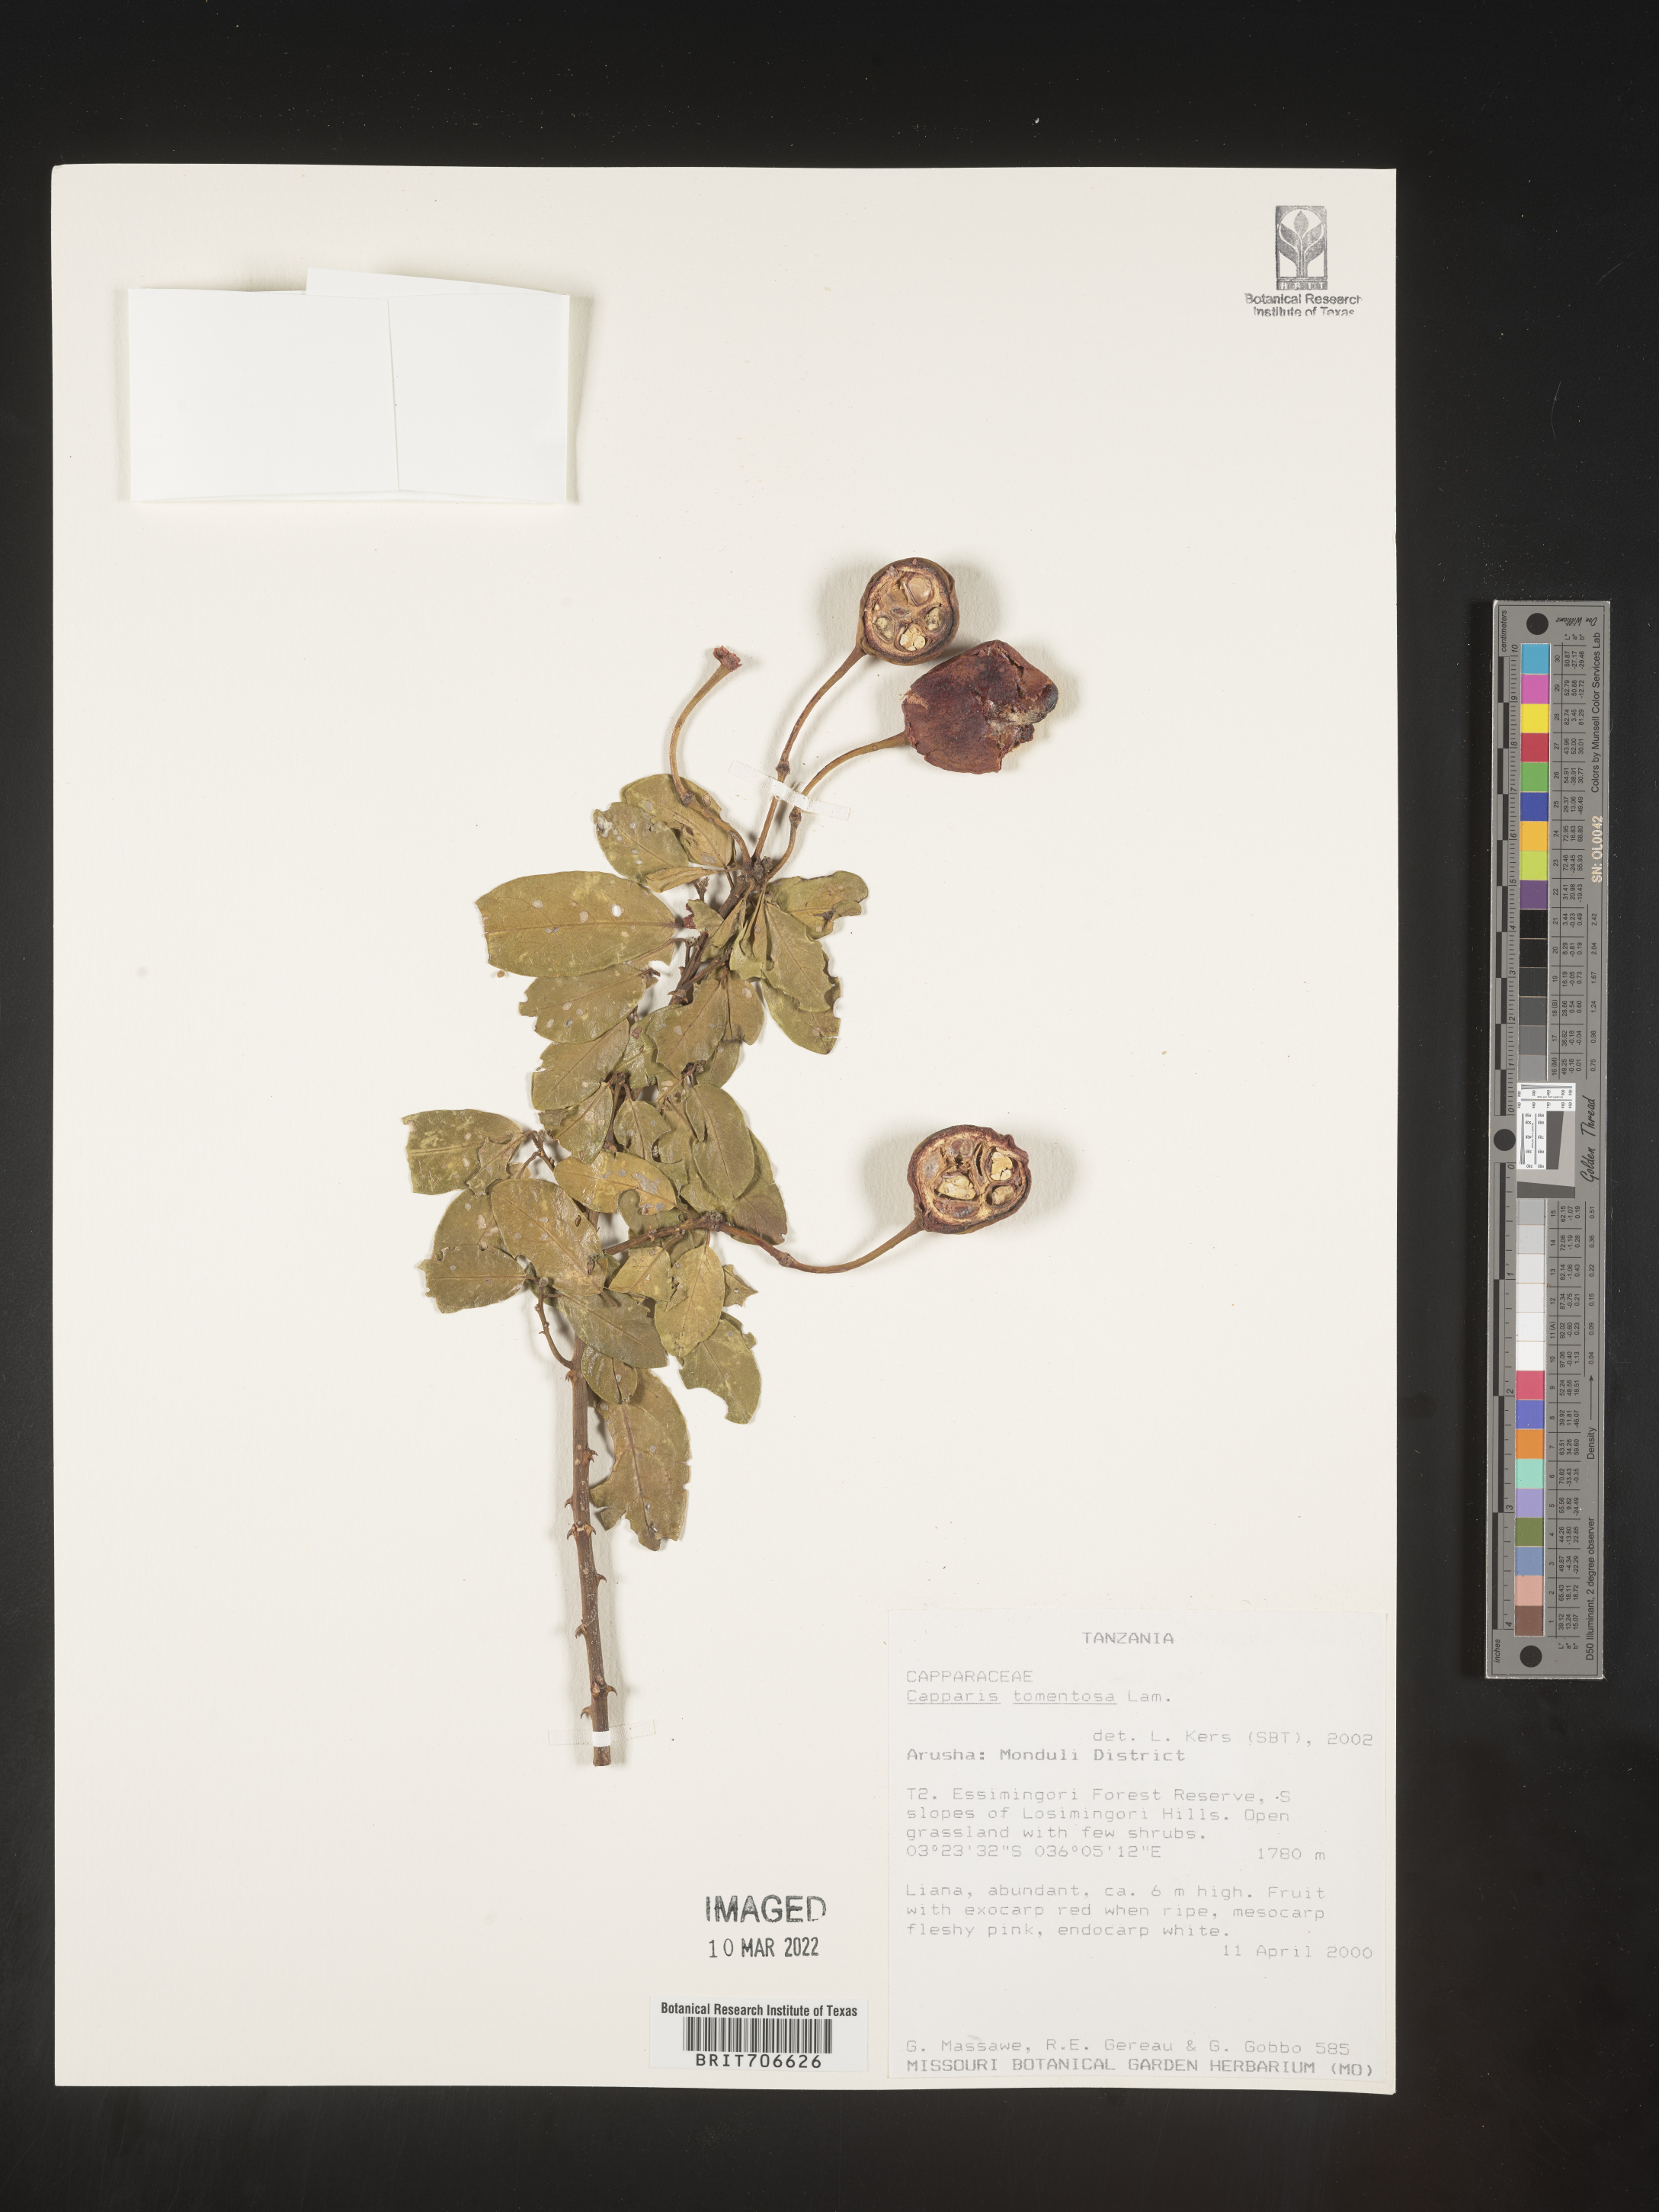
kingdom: Plantae
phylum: Tracheophyta
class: Magnoliopsida
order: Brassicales
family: Capparaceae
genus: Capparis
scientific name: Capparis
